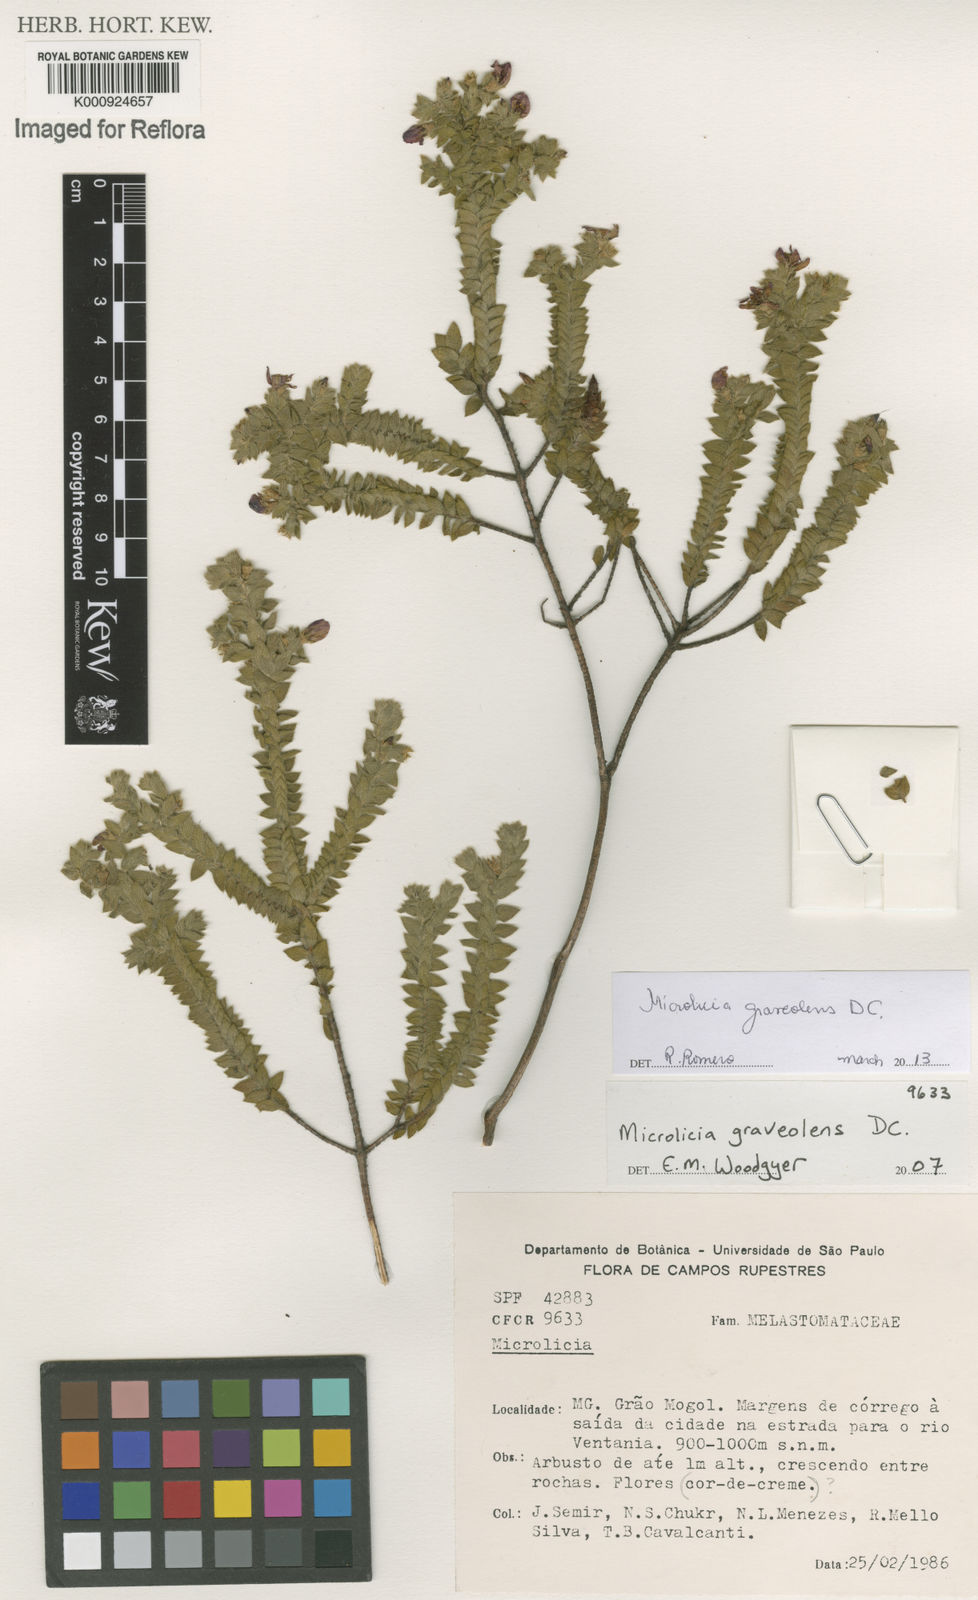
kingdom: Plantae
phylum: Tracheophyta
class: Magnoliopsida
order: Myrtales
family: Melastomataceae
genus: Microlicia
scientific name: Microlicia graveolens
